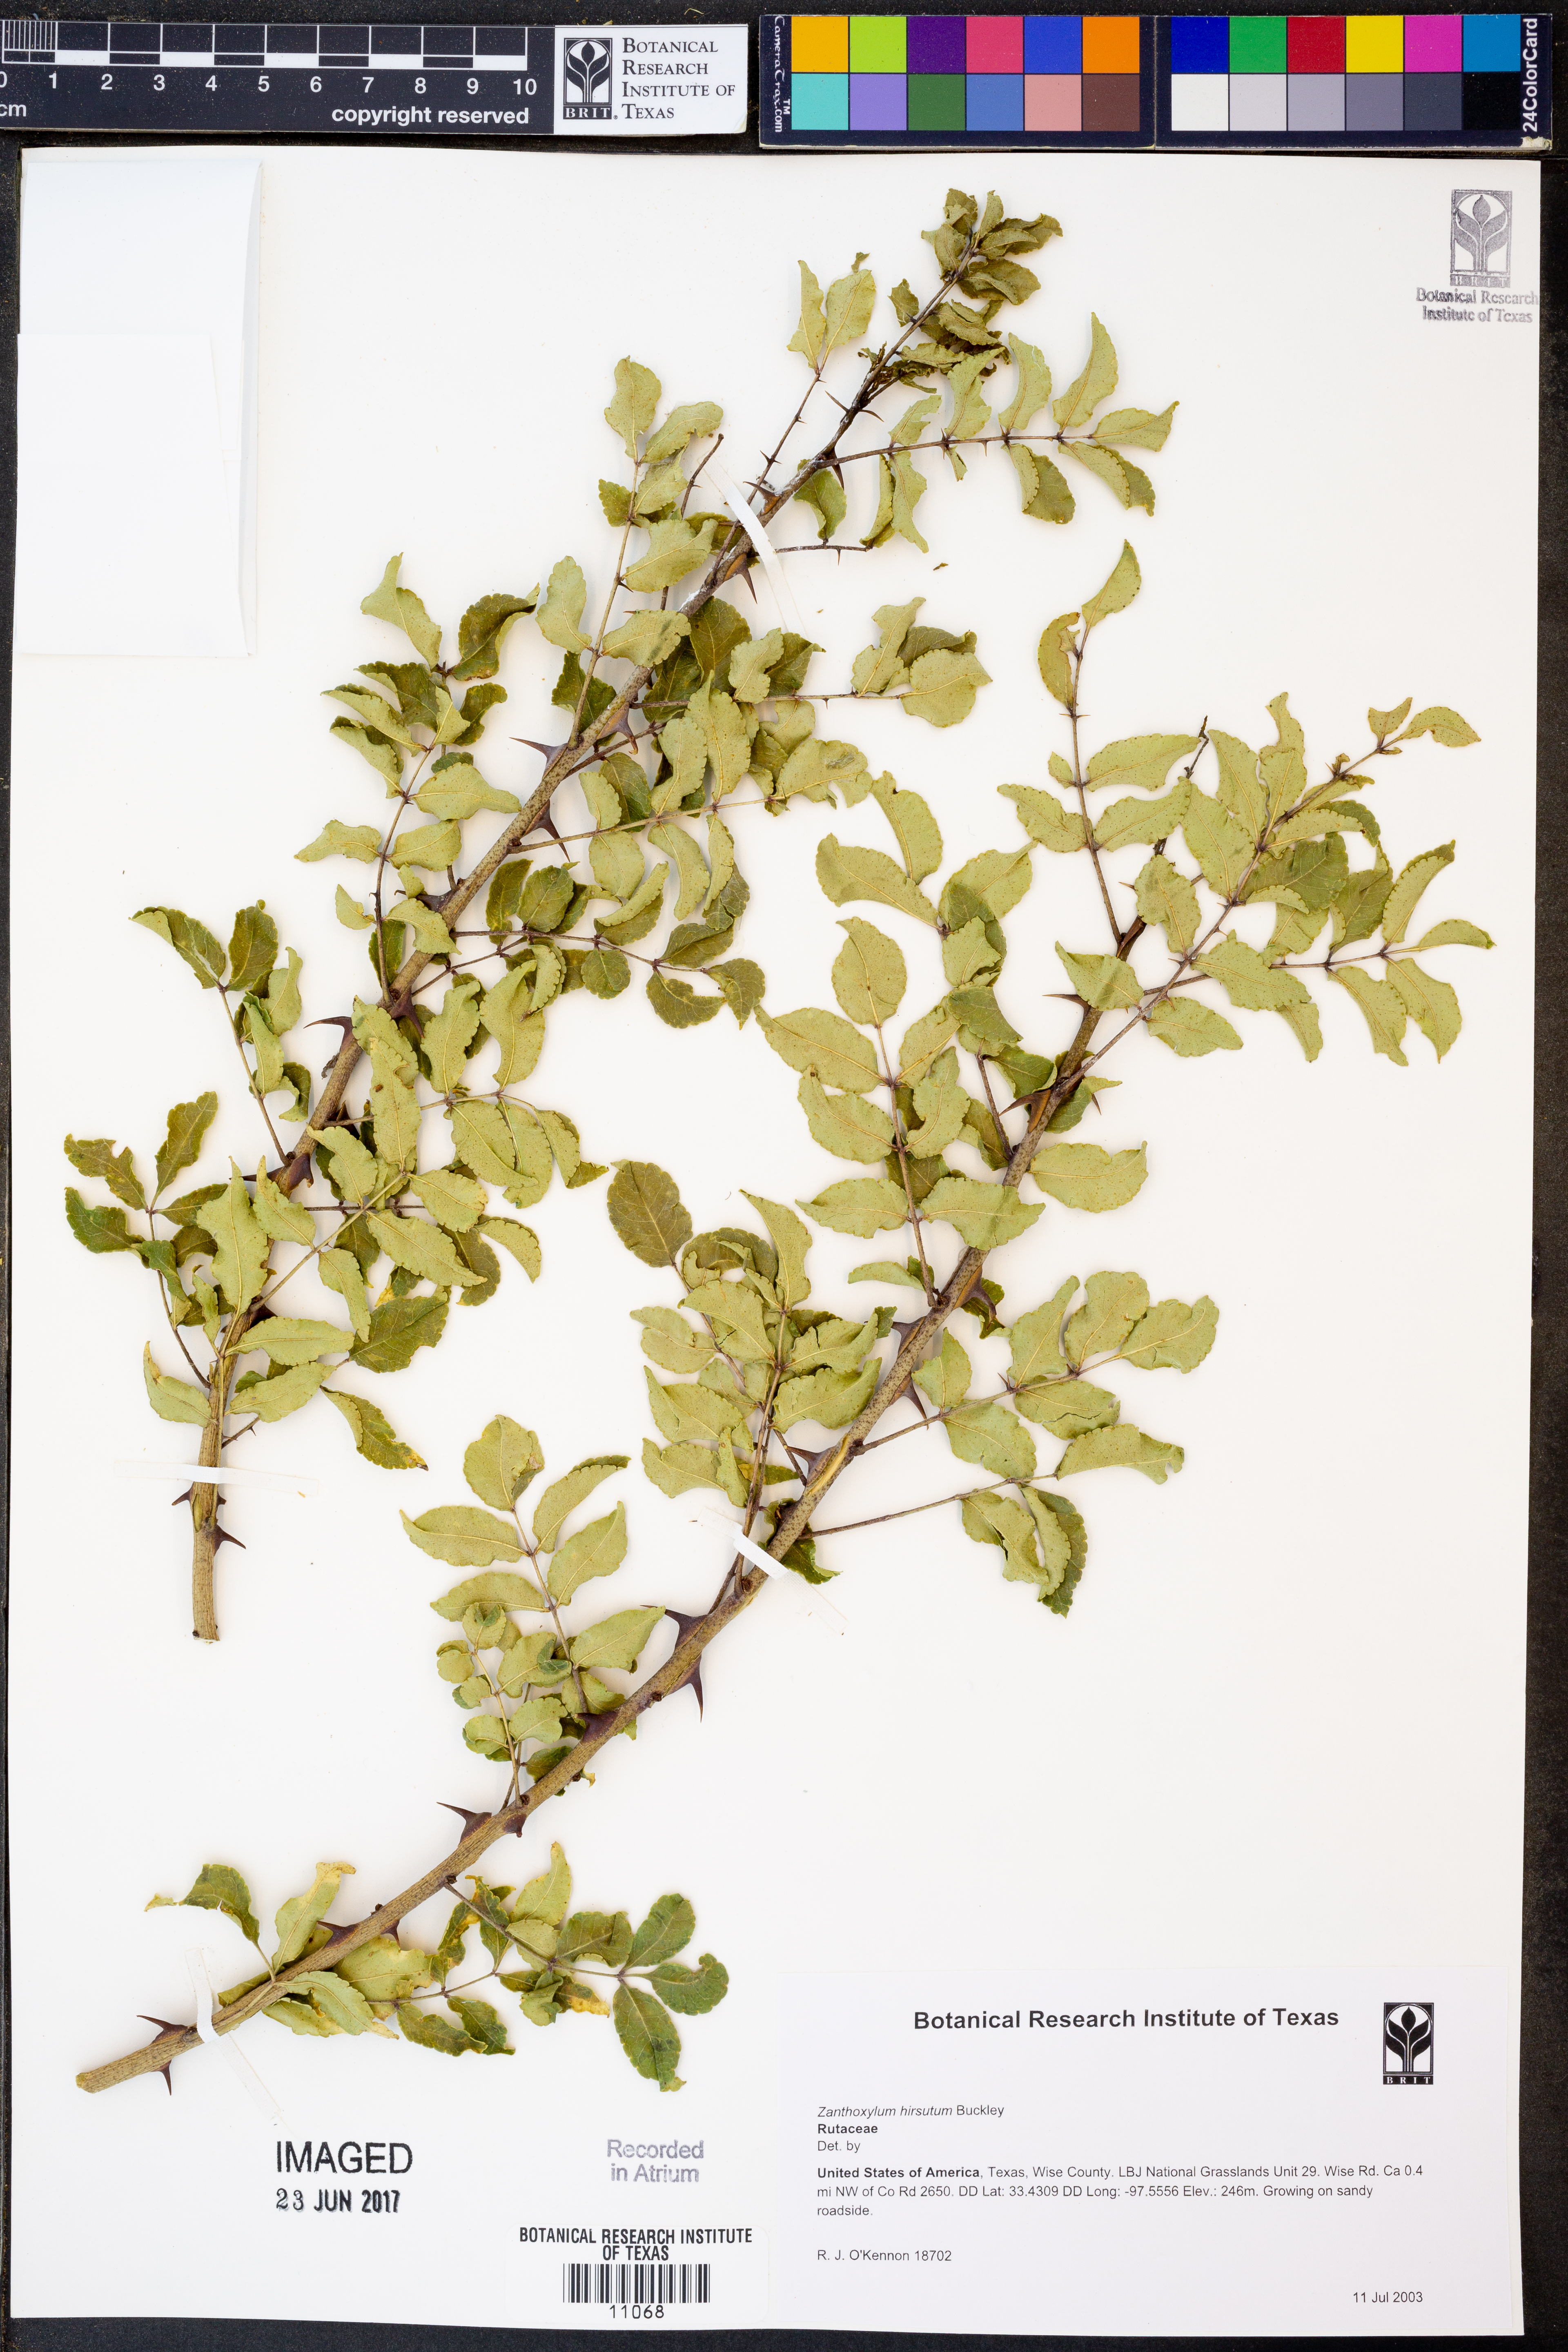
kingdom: Plantae
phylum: Tracheophyta
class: Magnoliopsida
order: Sapindales
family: Rutaceae
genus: Zanthoxylum
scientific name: Zanthoxylum clava-herculis
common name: Hercules'-club
